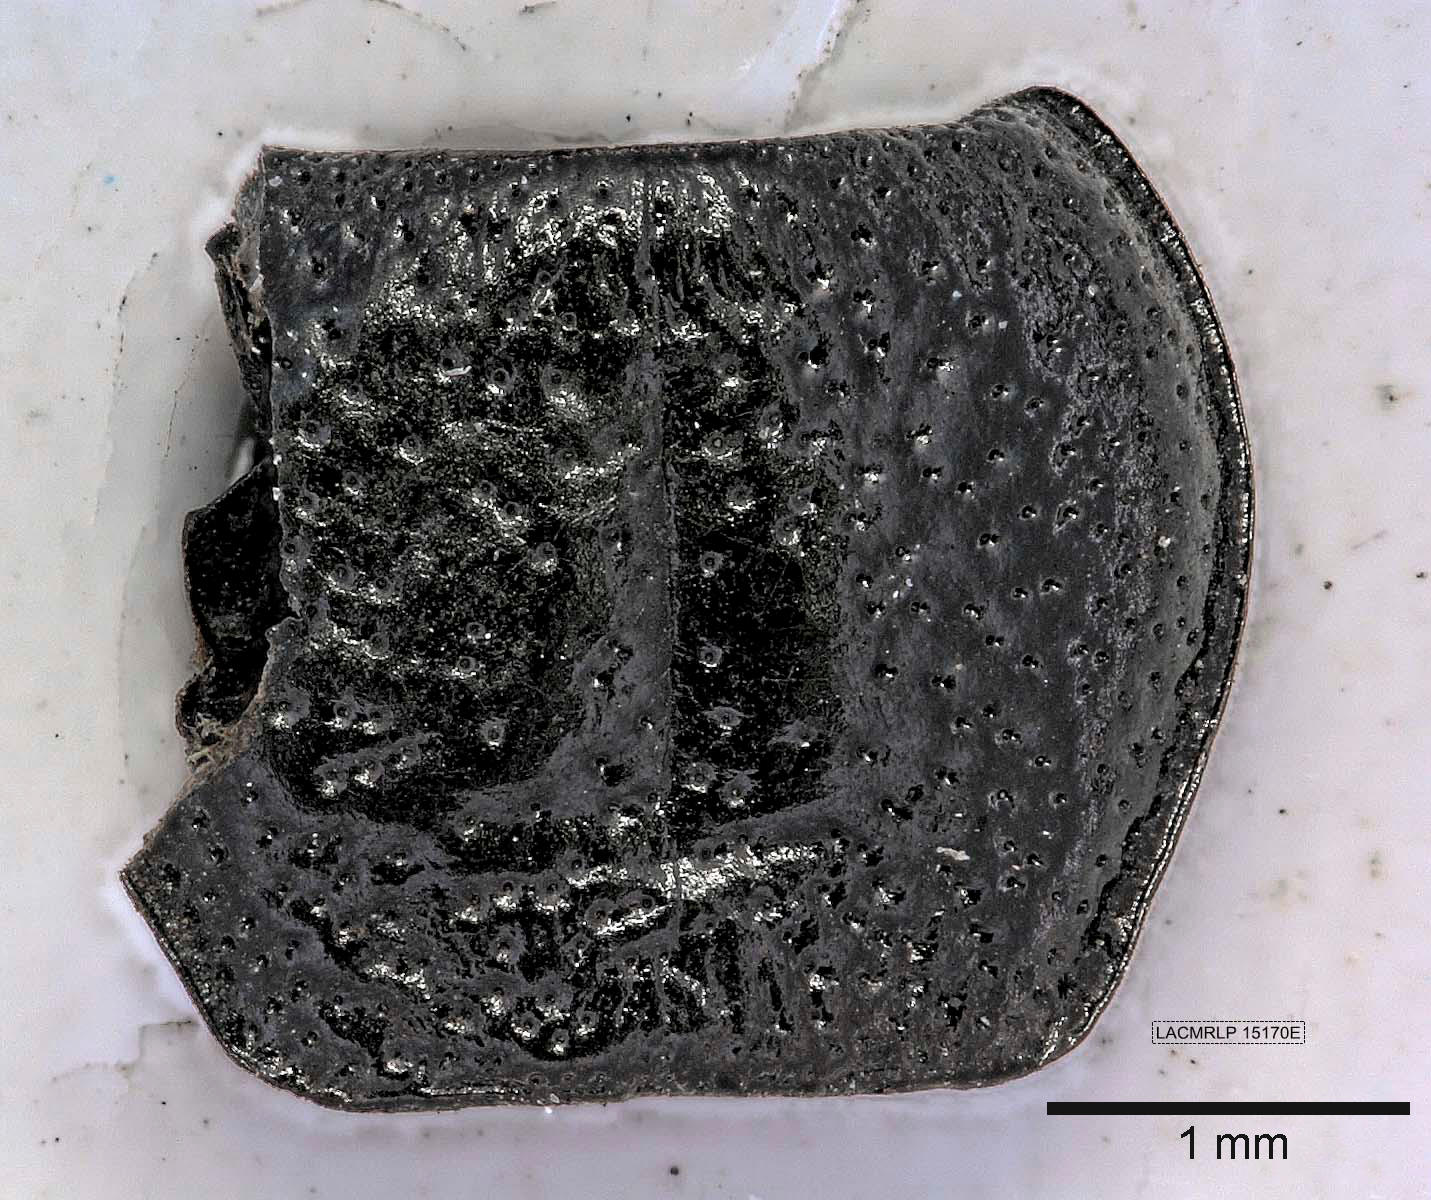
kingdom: Animalia
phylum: Arthropoda
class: Insecta
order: Coleoptera
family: Carabidae
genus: Dicheirus
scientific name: Dicheirus dilatatus
